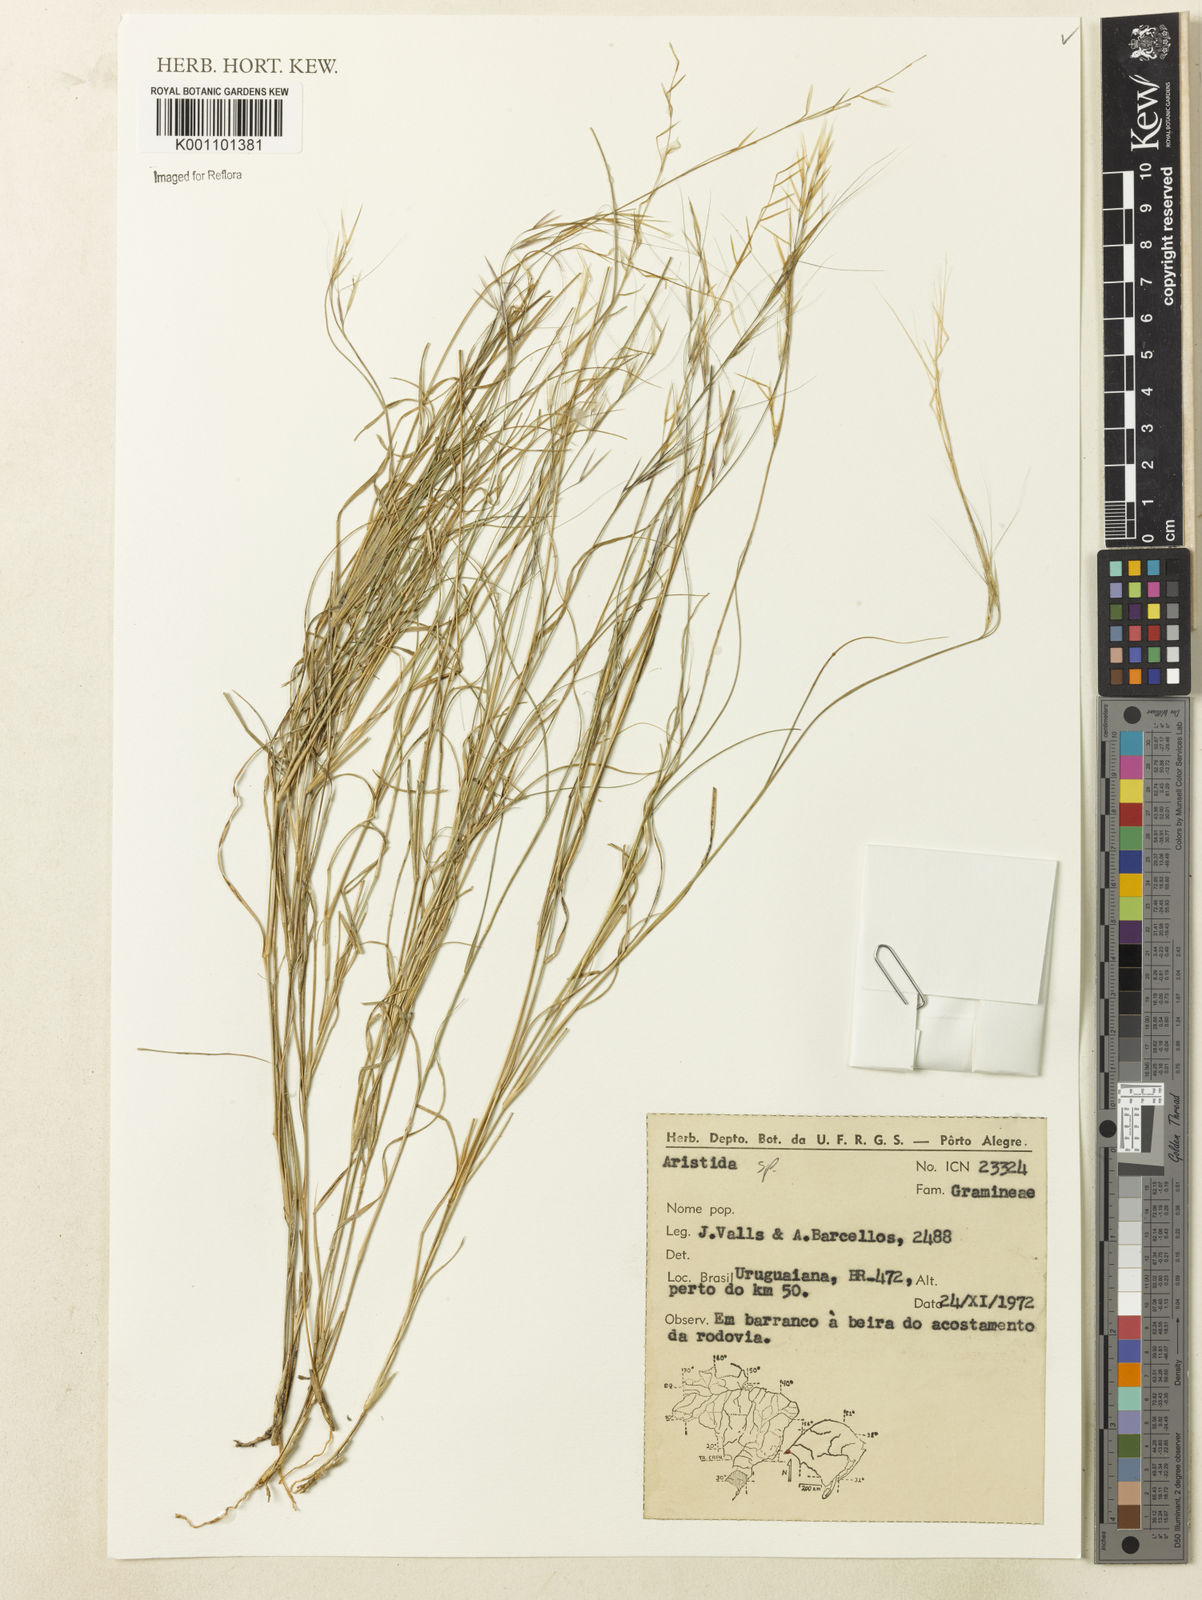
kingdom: Plantae
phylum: Tracheophyta
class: Liliopsida
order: Poales
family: Poaceae
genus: Aristida
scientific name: Aristida
